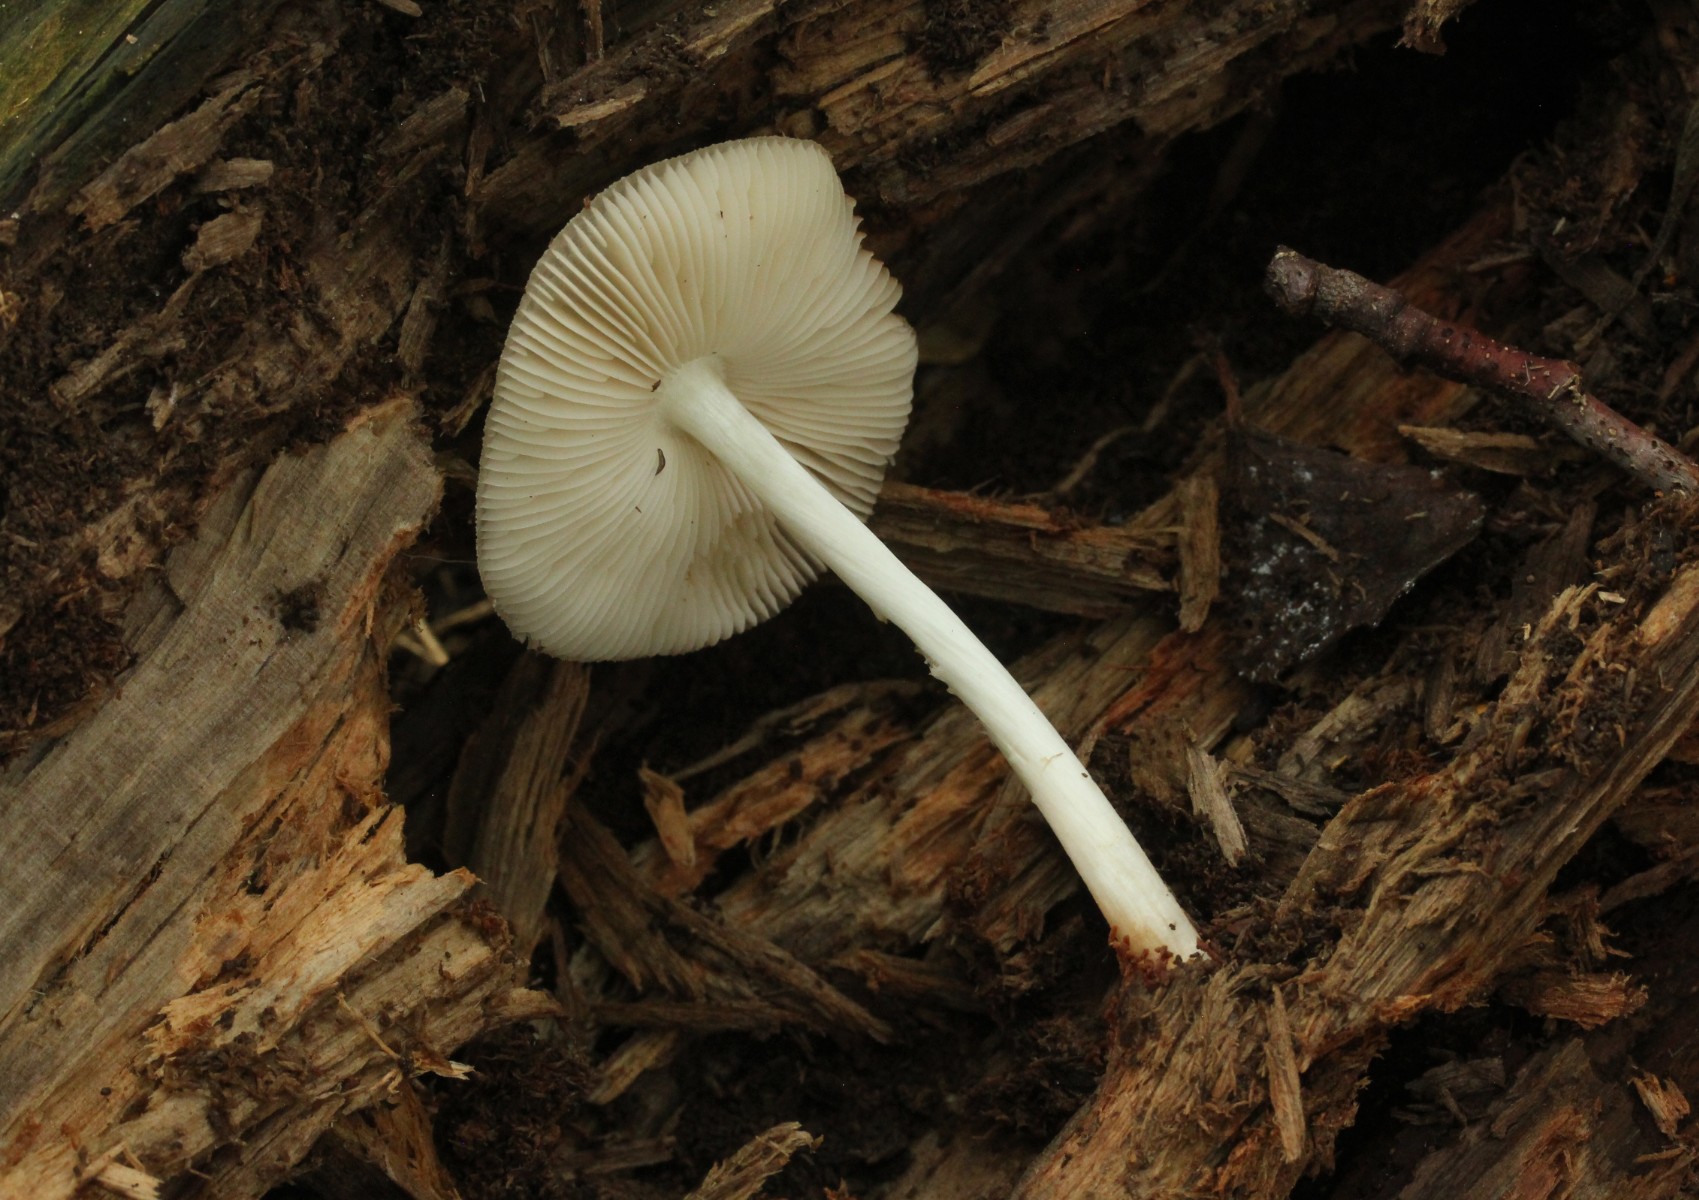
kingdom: Fungi
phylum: Basidiomycota
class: Agaricomycetes
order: Agaricales
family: Pluteaceae
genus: Pluteus
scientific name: Pluteus salicinus
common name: stiv skærmhat
